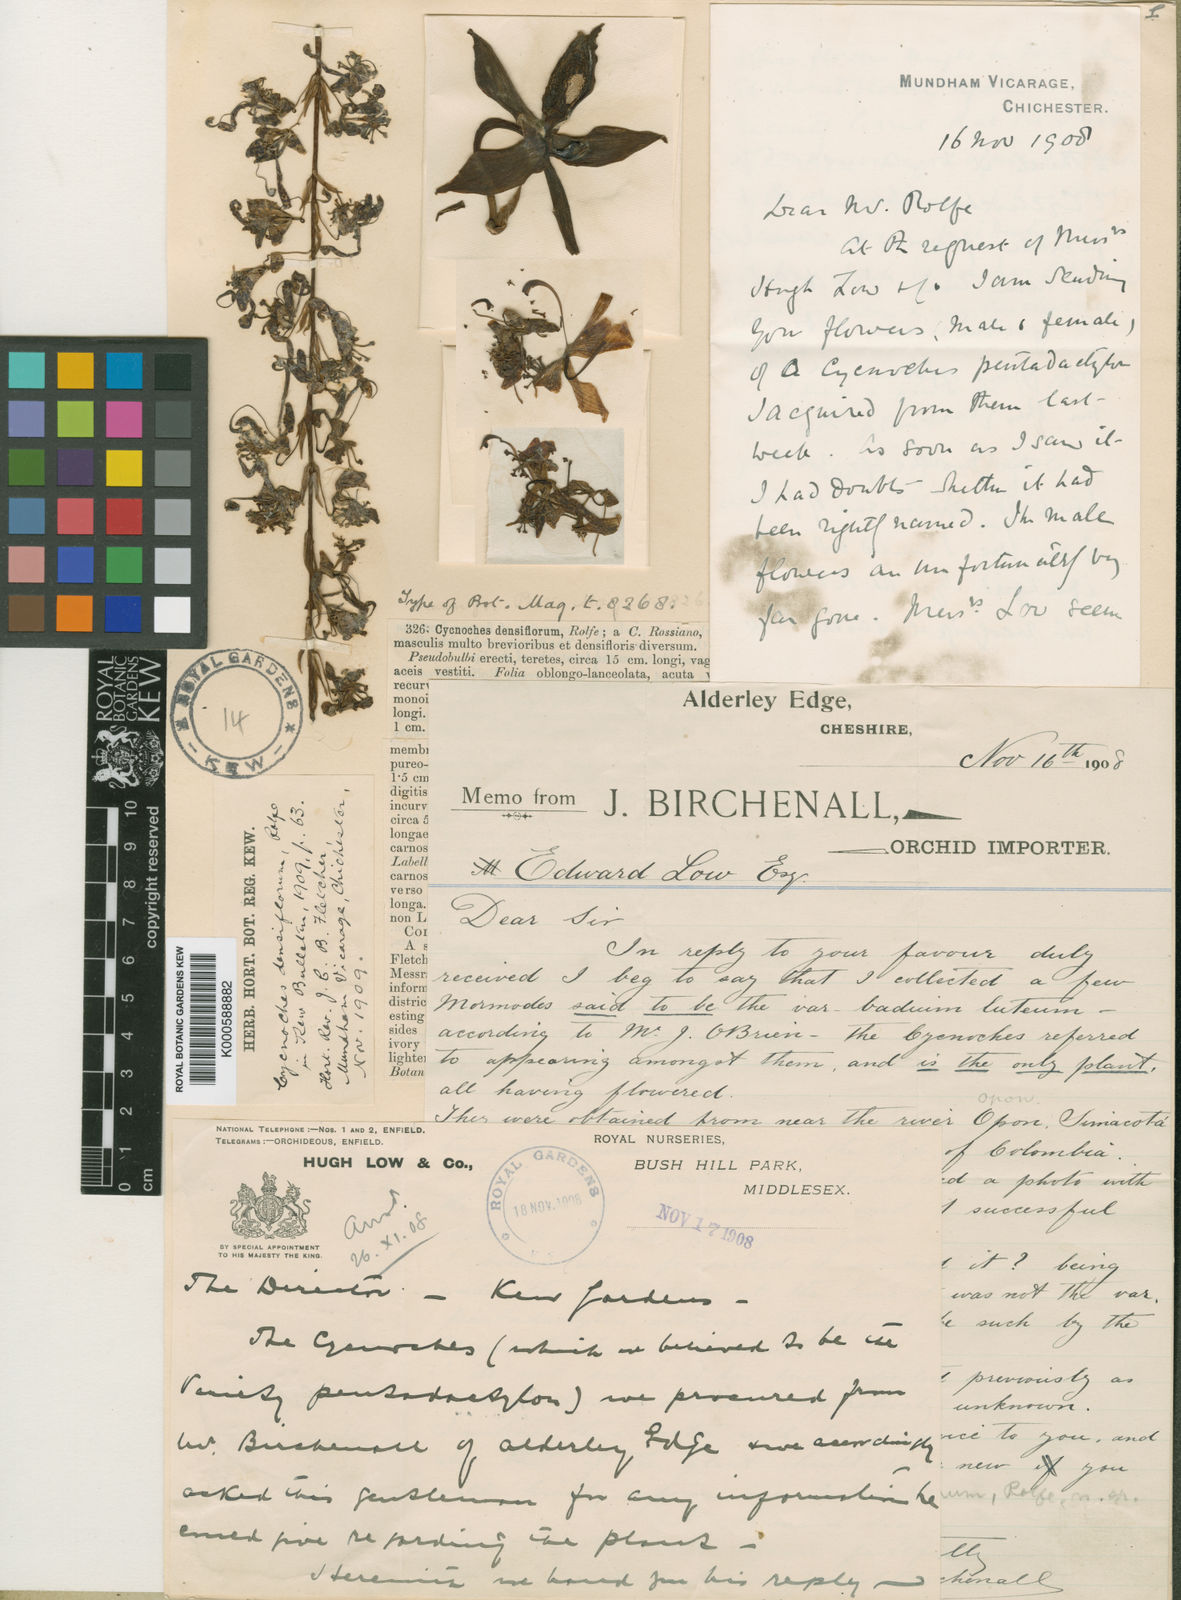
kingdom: Plantae
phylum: Tracheophyta
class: Liliopsida
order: Asparagales
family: Orchidaceae
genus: Cycnoches
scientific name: Cycnoches egertonianum
